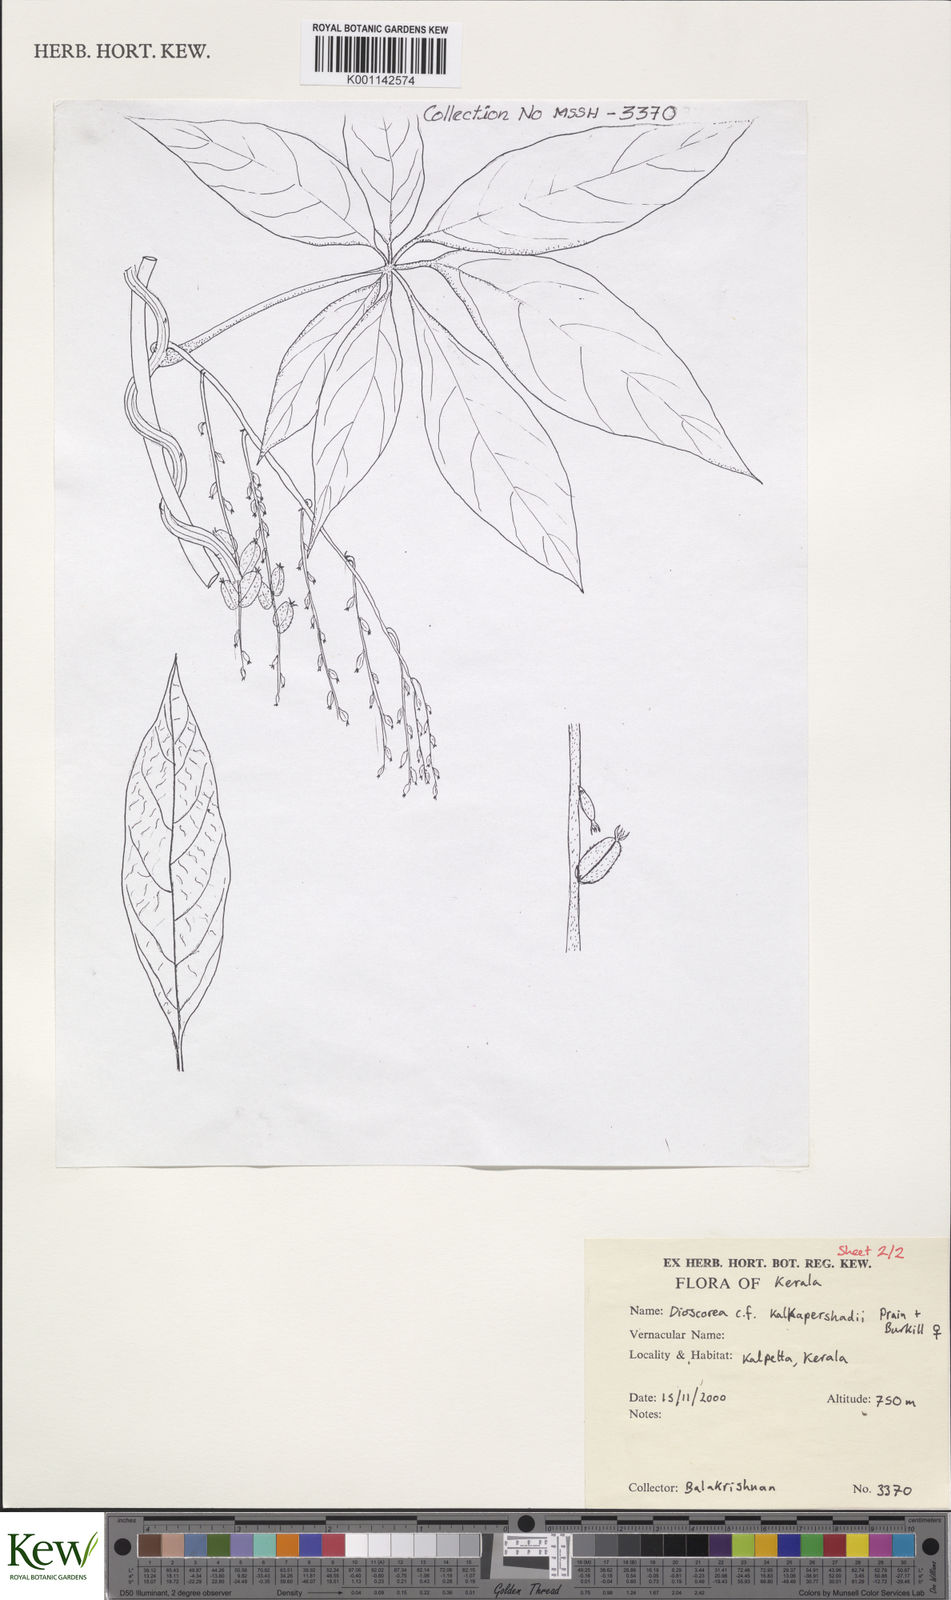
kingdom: Plantae
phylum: Tracheophyta
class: Liliopsida
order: Dioscoreales
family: Dioscoreaceae
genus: Dioscorea
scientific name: Dioscorea kalkapershadii
